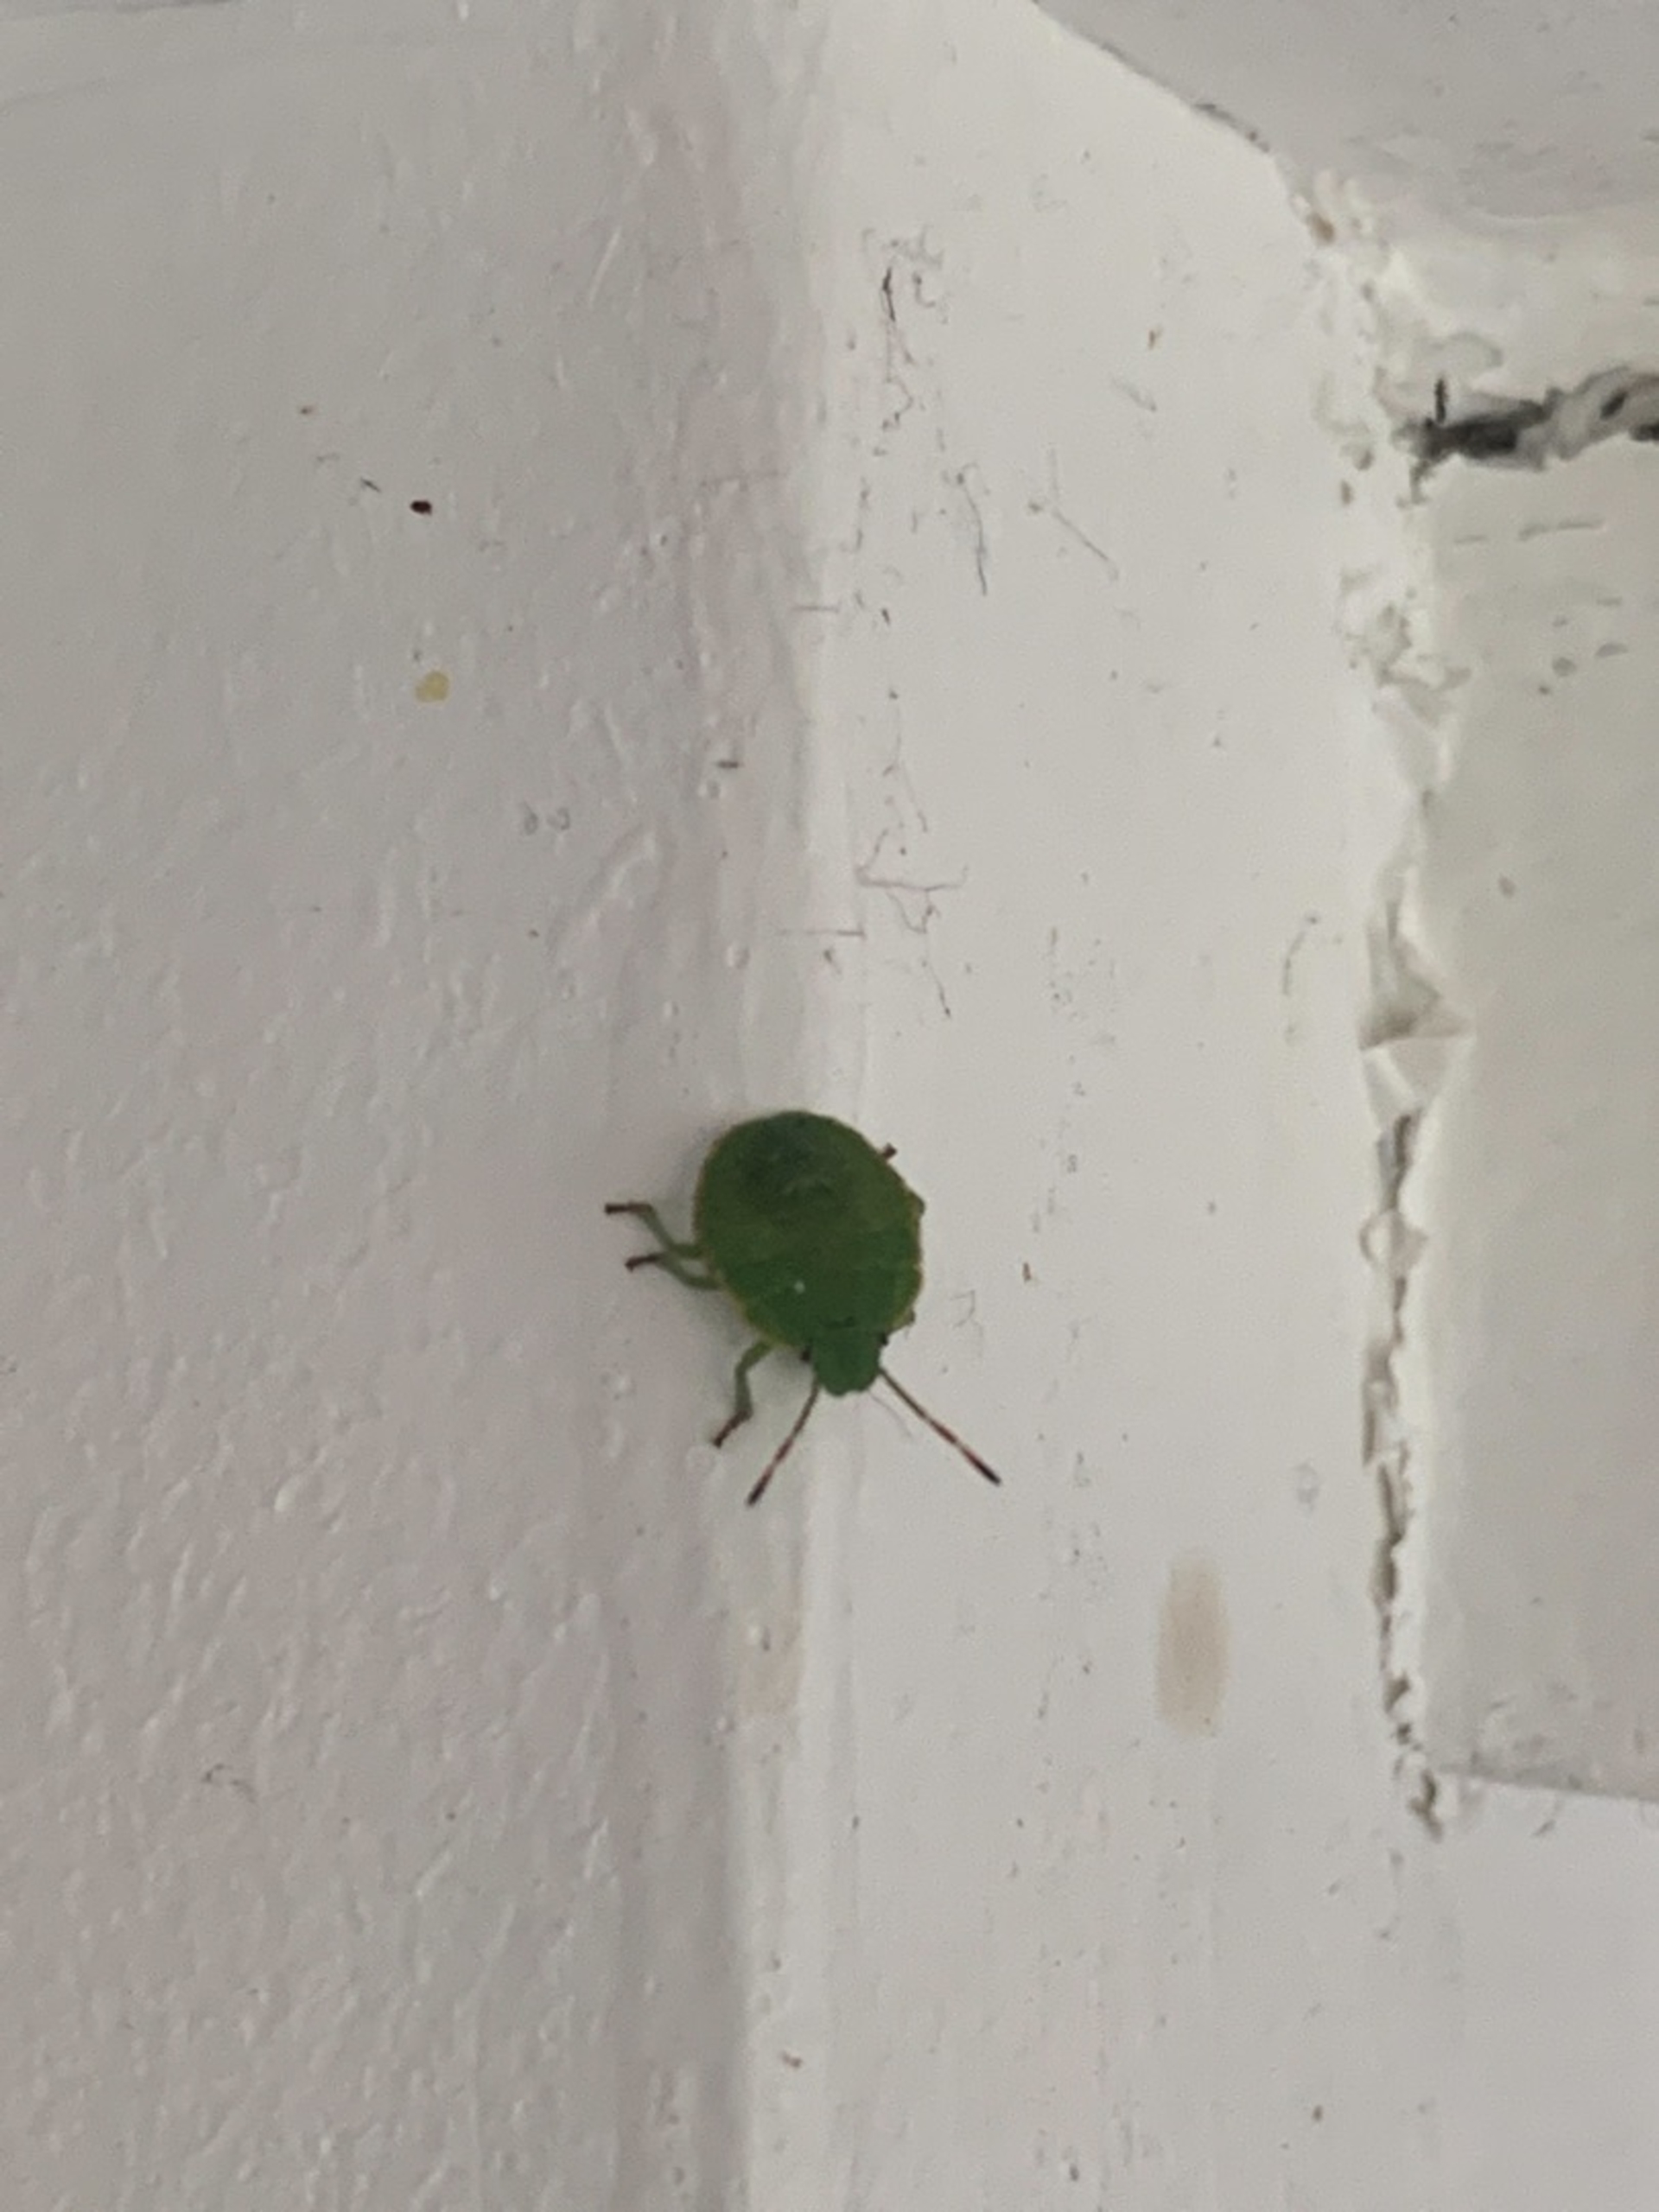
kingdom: Animalia
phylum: Arthropoda
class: Insecta
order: Hemiptera
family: Pentatomidae
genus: Palomena
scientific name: Palomena prasina
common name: Grøn bredtæge
